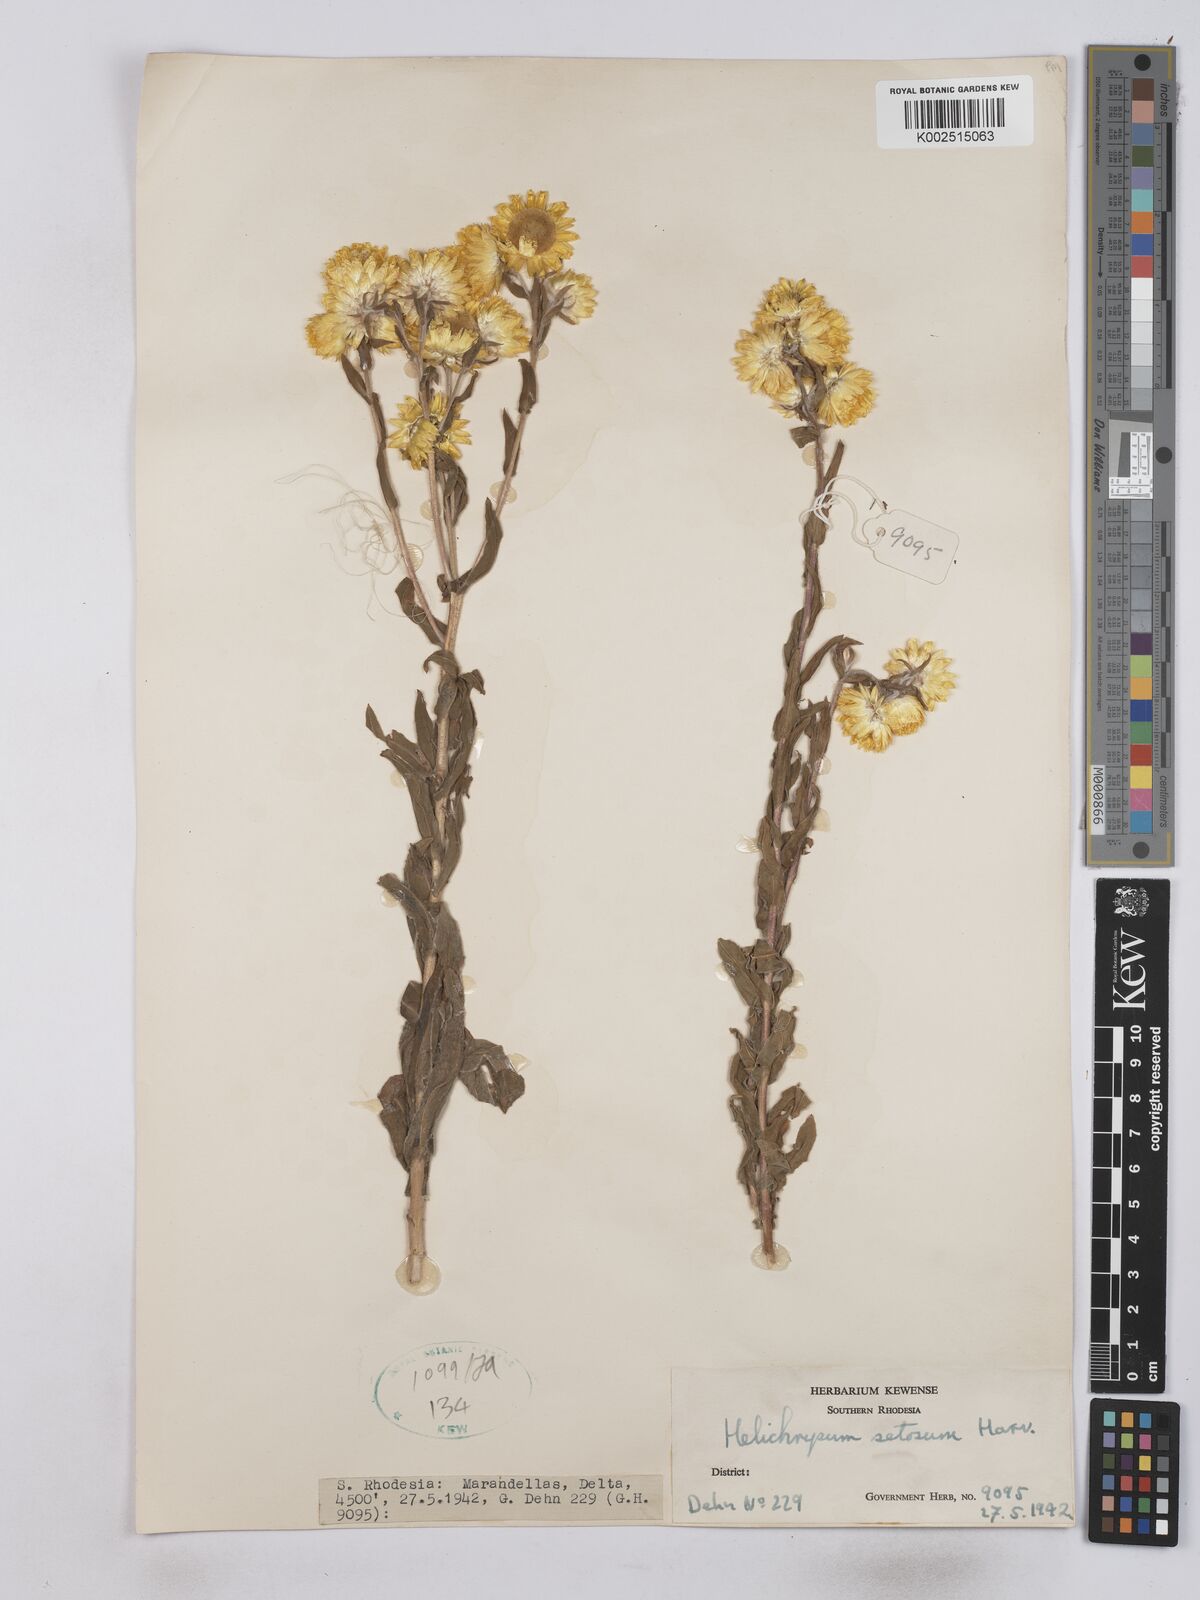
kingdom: Plantae
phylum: Tracheophyta
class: Magnoliopsida
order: Asterales
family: Asteraceae
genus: Helichrysum
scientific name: Helichrysum setosum
